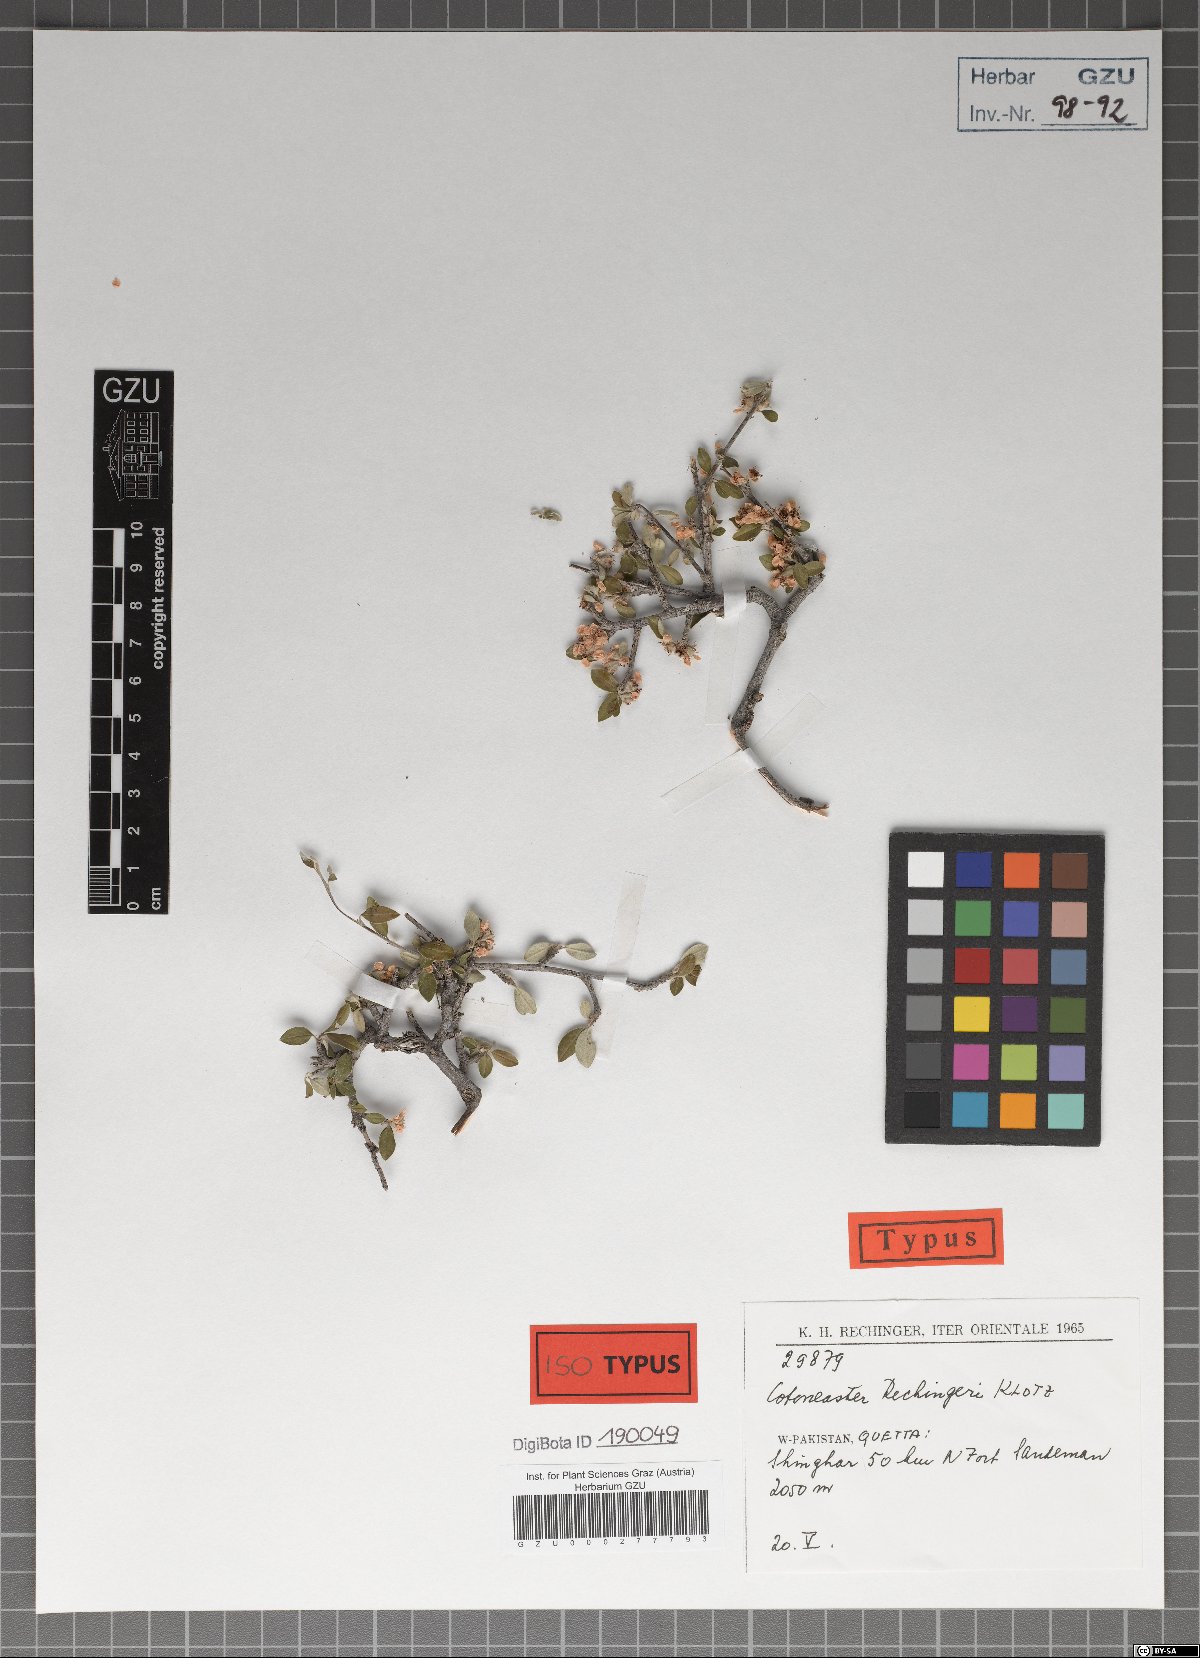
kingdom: Plantae
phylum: Tracheophyta
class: Magnoliopsida
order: Rosales
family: Rosaceae
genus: Cotoneaster
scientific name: Cotoneaster persicus
